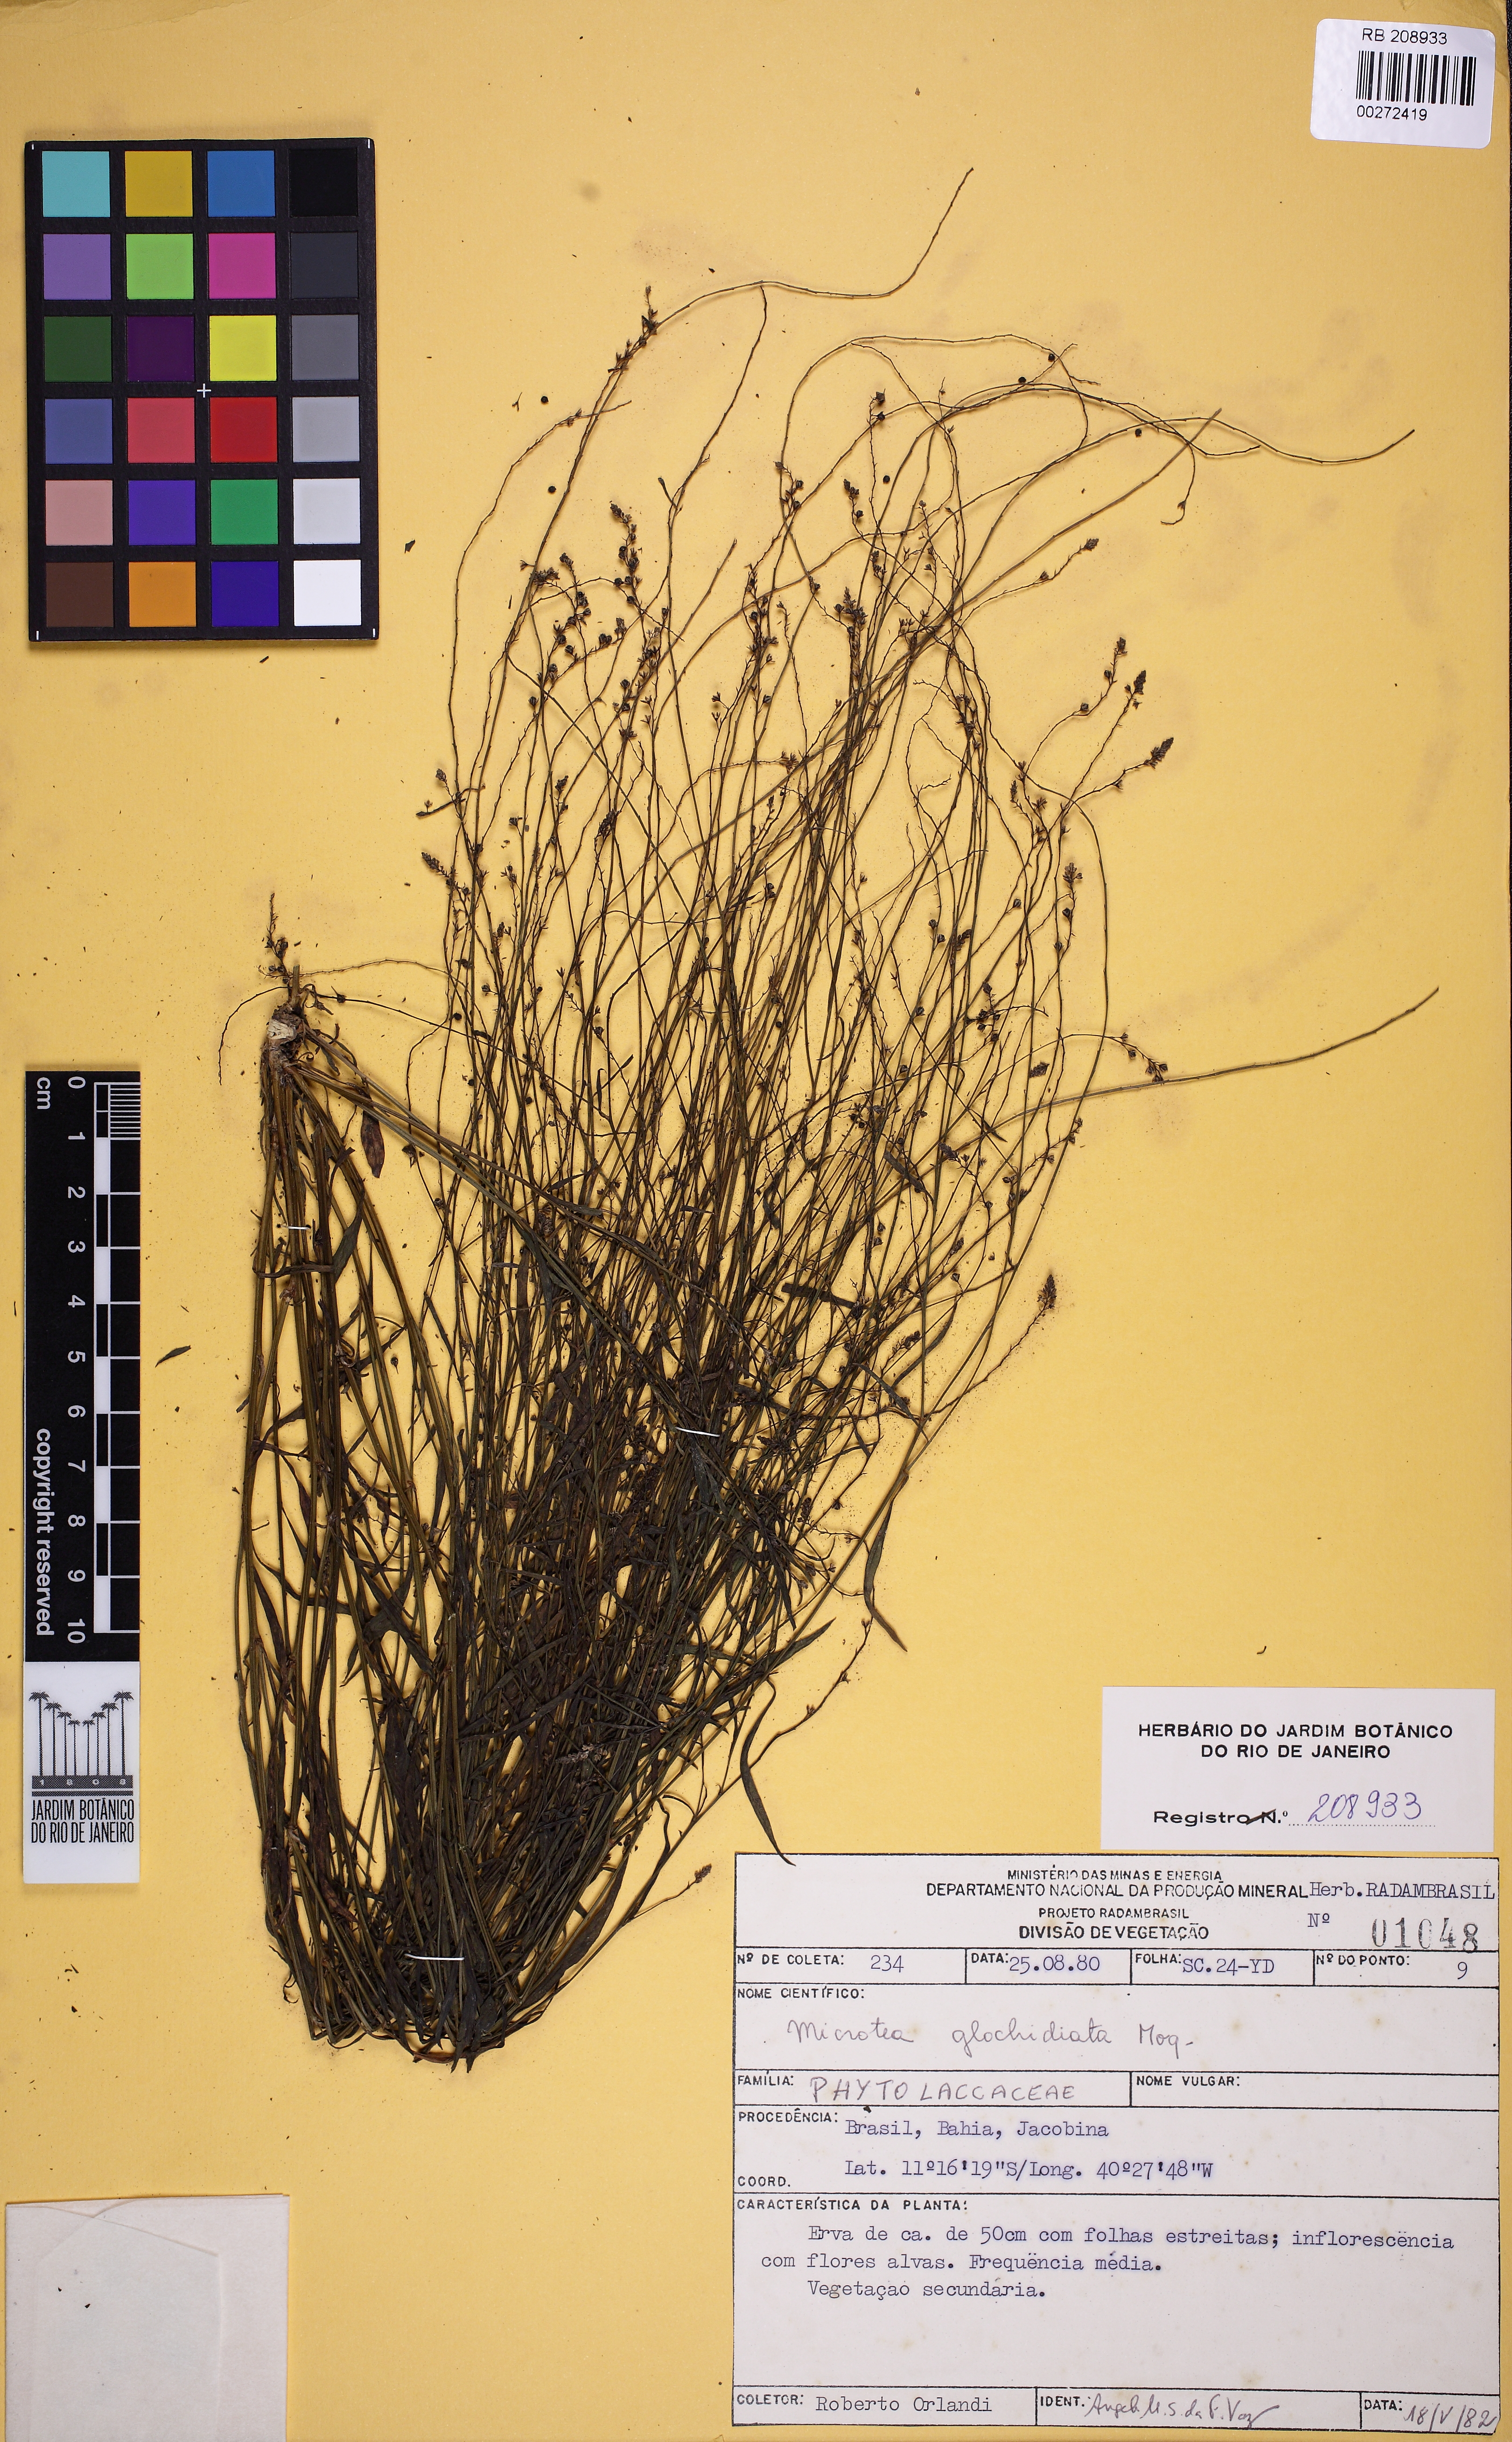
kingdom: Plantae
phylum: Tracheophyta
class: Magnoliopsida
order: Caryophyllales
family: Microteaceae
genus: Microtea
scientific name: Microtea glochidiata
